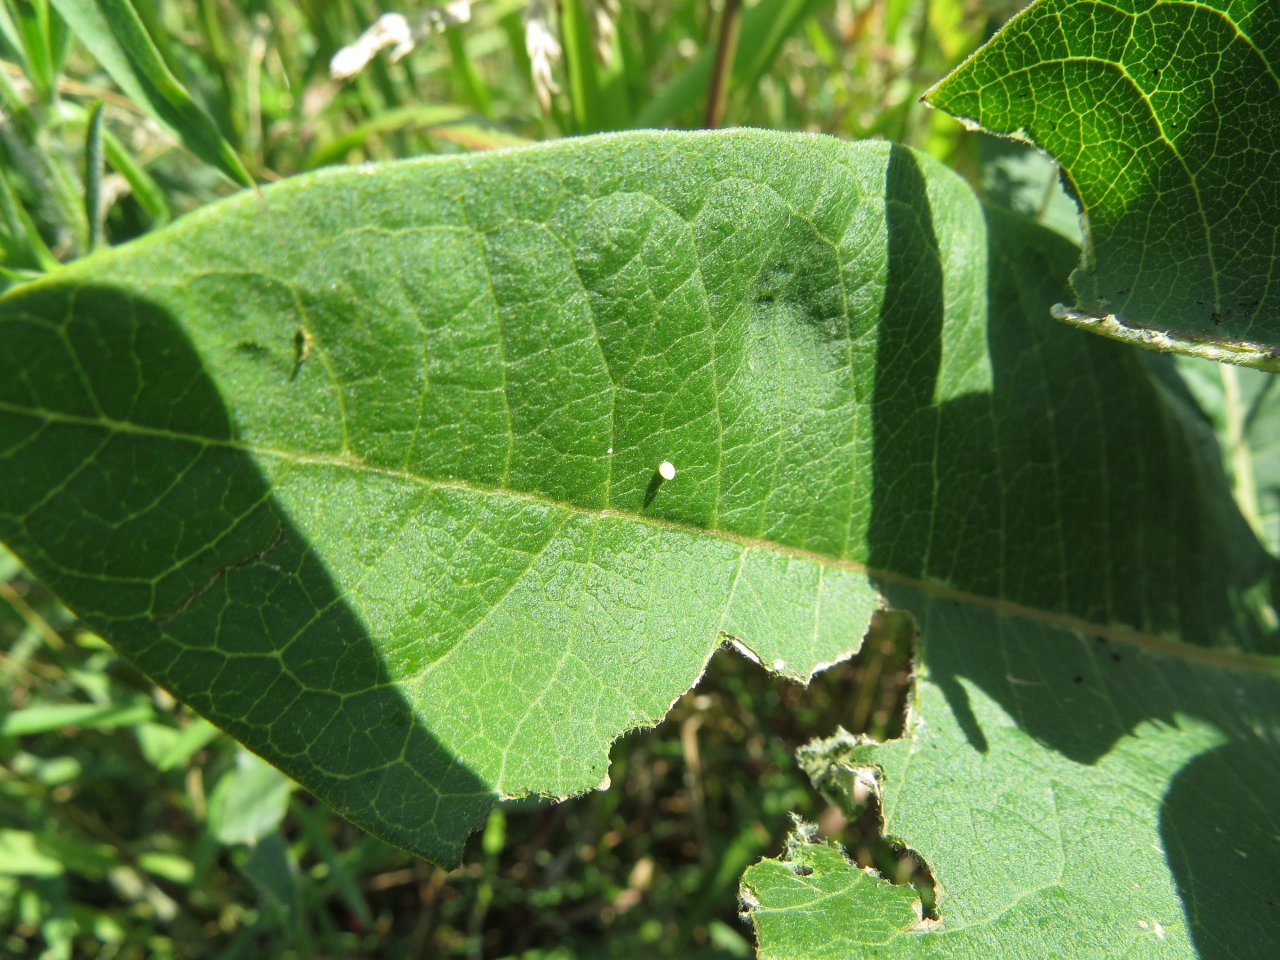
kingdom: Animalia
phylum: Arthropoda
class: Insecta
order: Lepidoptera
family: Nymphalidae
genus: Danaus
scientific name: Danaus plexippus
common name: Monarch
